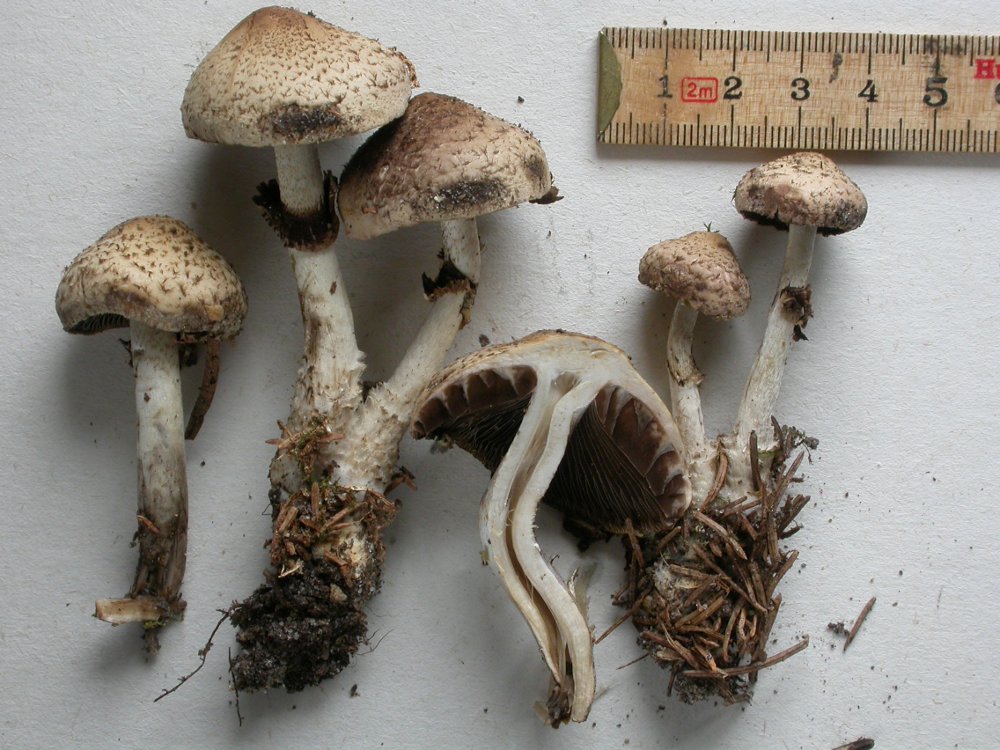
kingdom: Fungi
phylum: Basidiomycota
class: Agaricomycetes
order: Agaricales
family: Psathyrellaceae
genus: Psathyrella
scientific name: Psathyrella caput-medusae
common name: medusa-mørkhat
